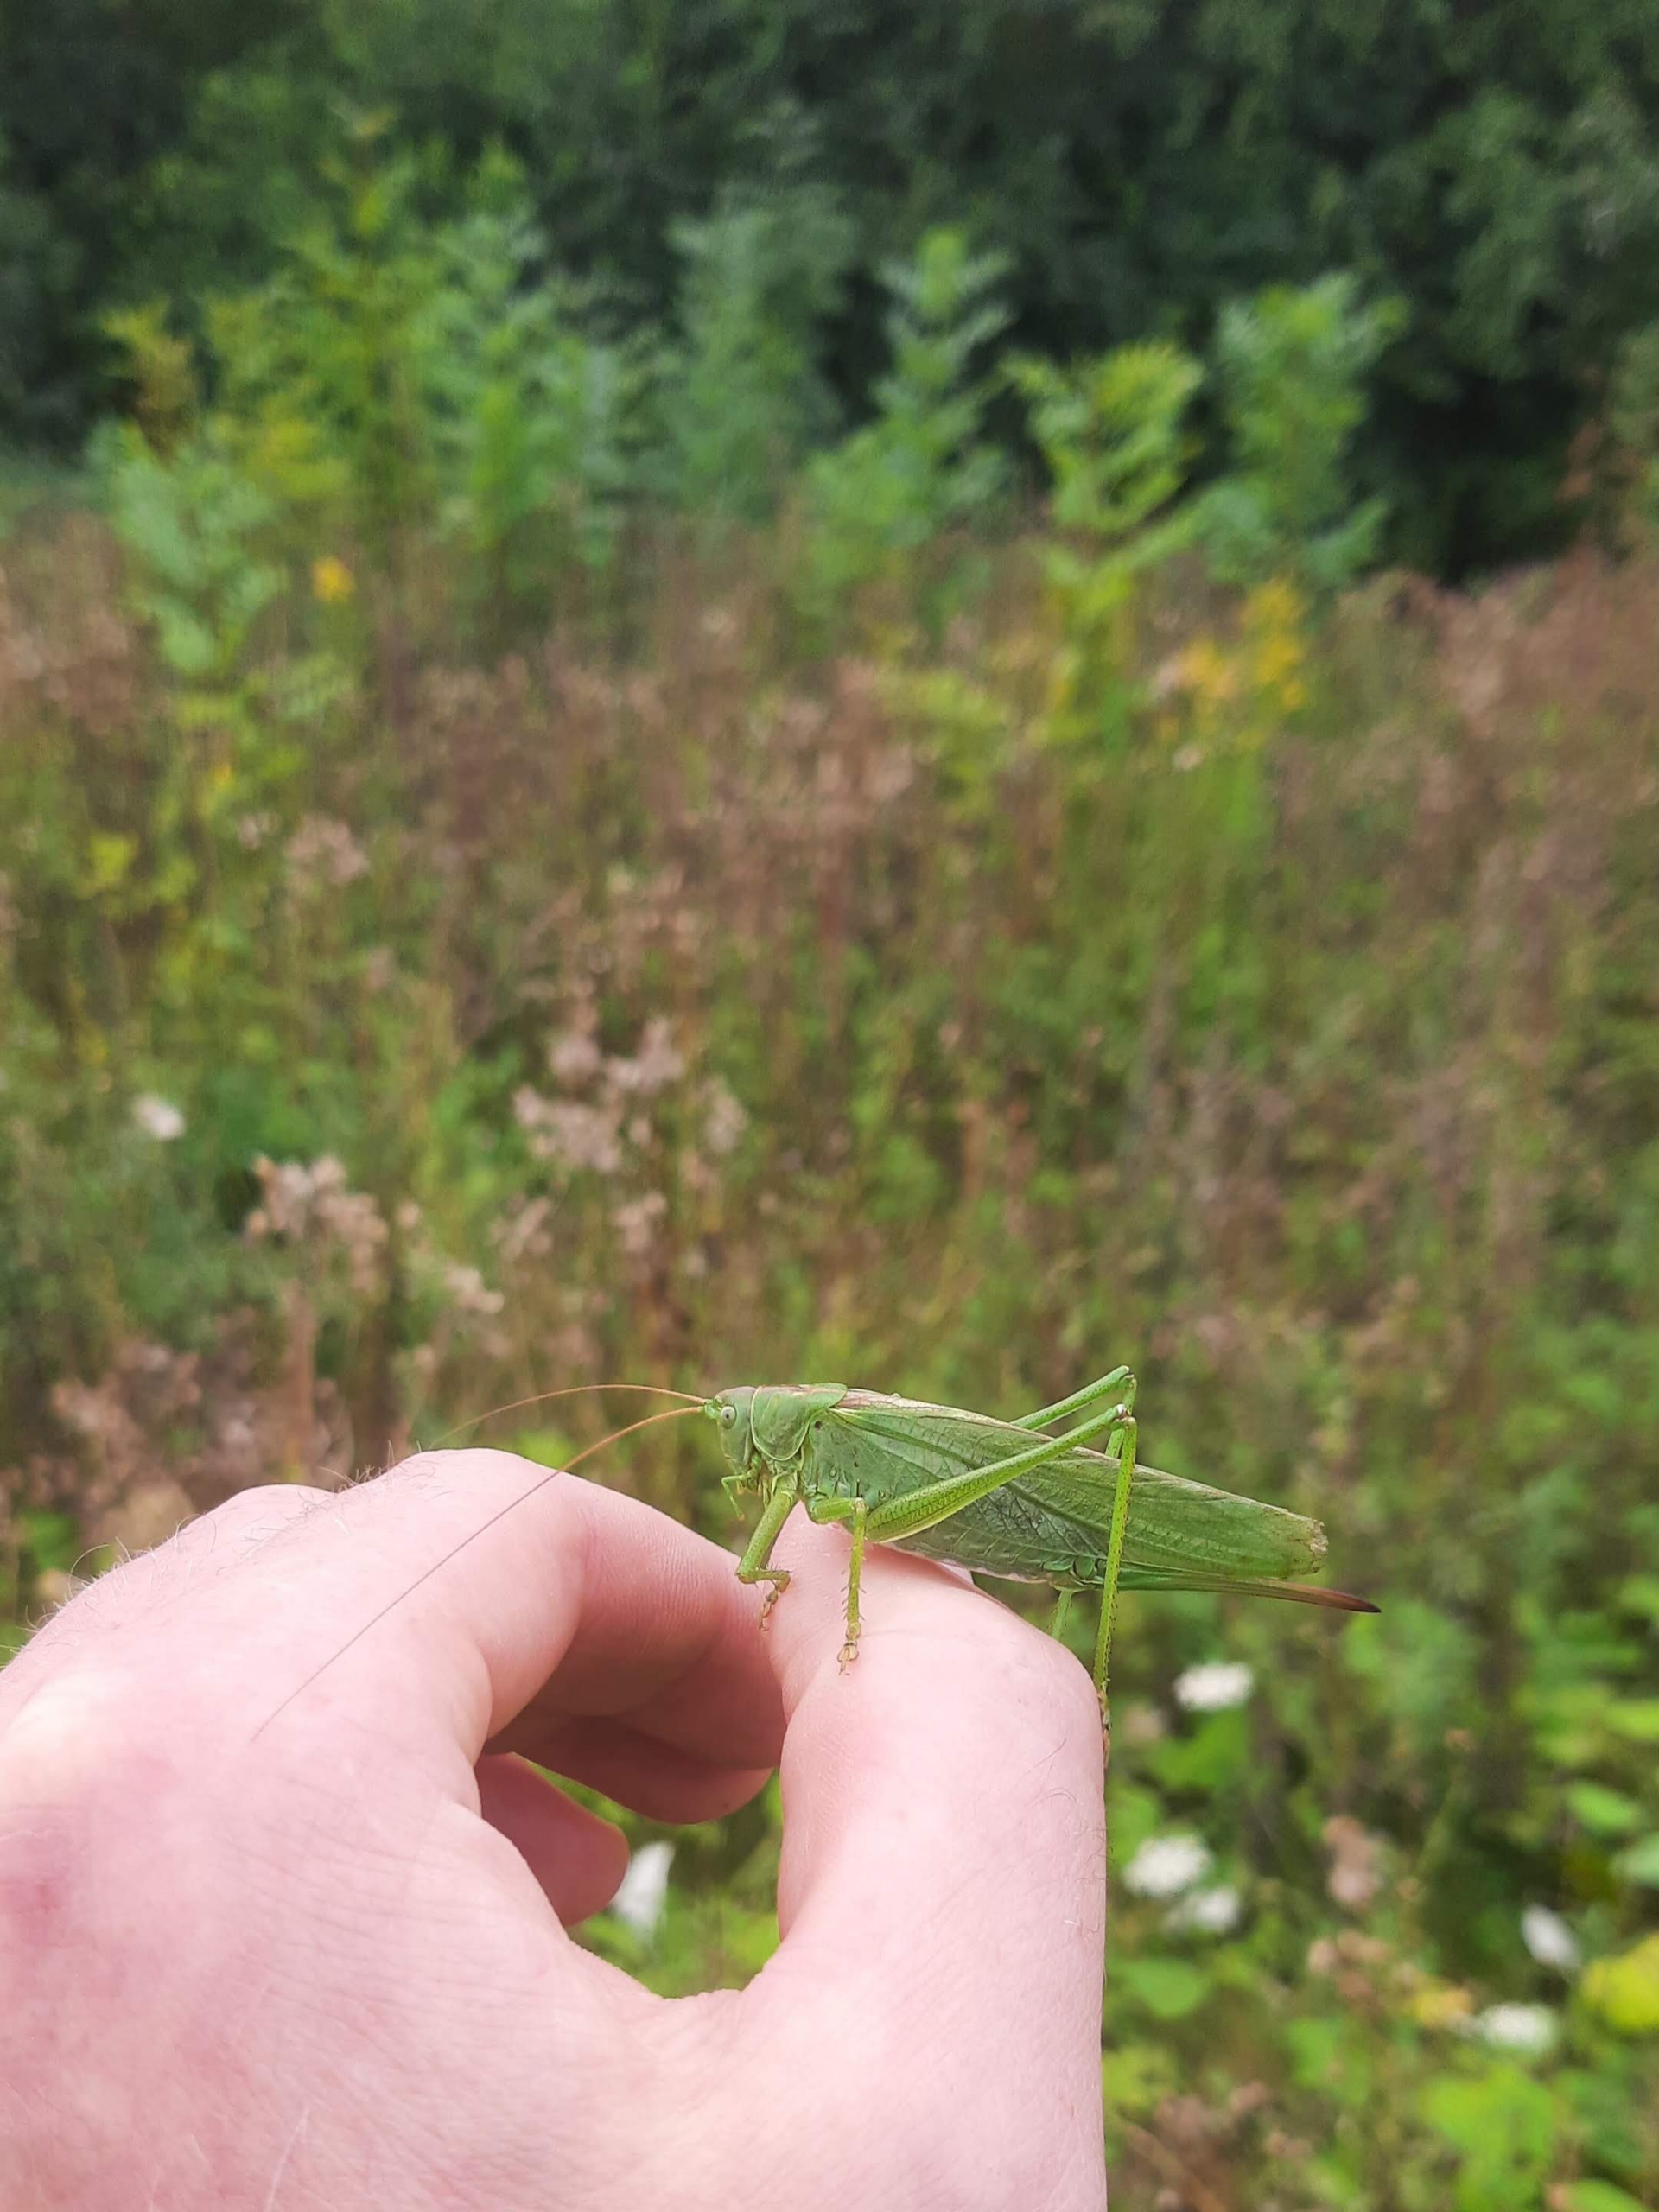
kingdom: Animalia
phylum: Arthropoda
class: Insecta
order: Orthoptera
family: Tettigoniidae
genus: Tettigonia
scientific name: Tettigonia viridissima
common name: Stor grøn løvgræshoppe
